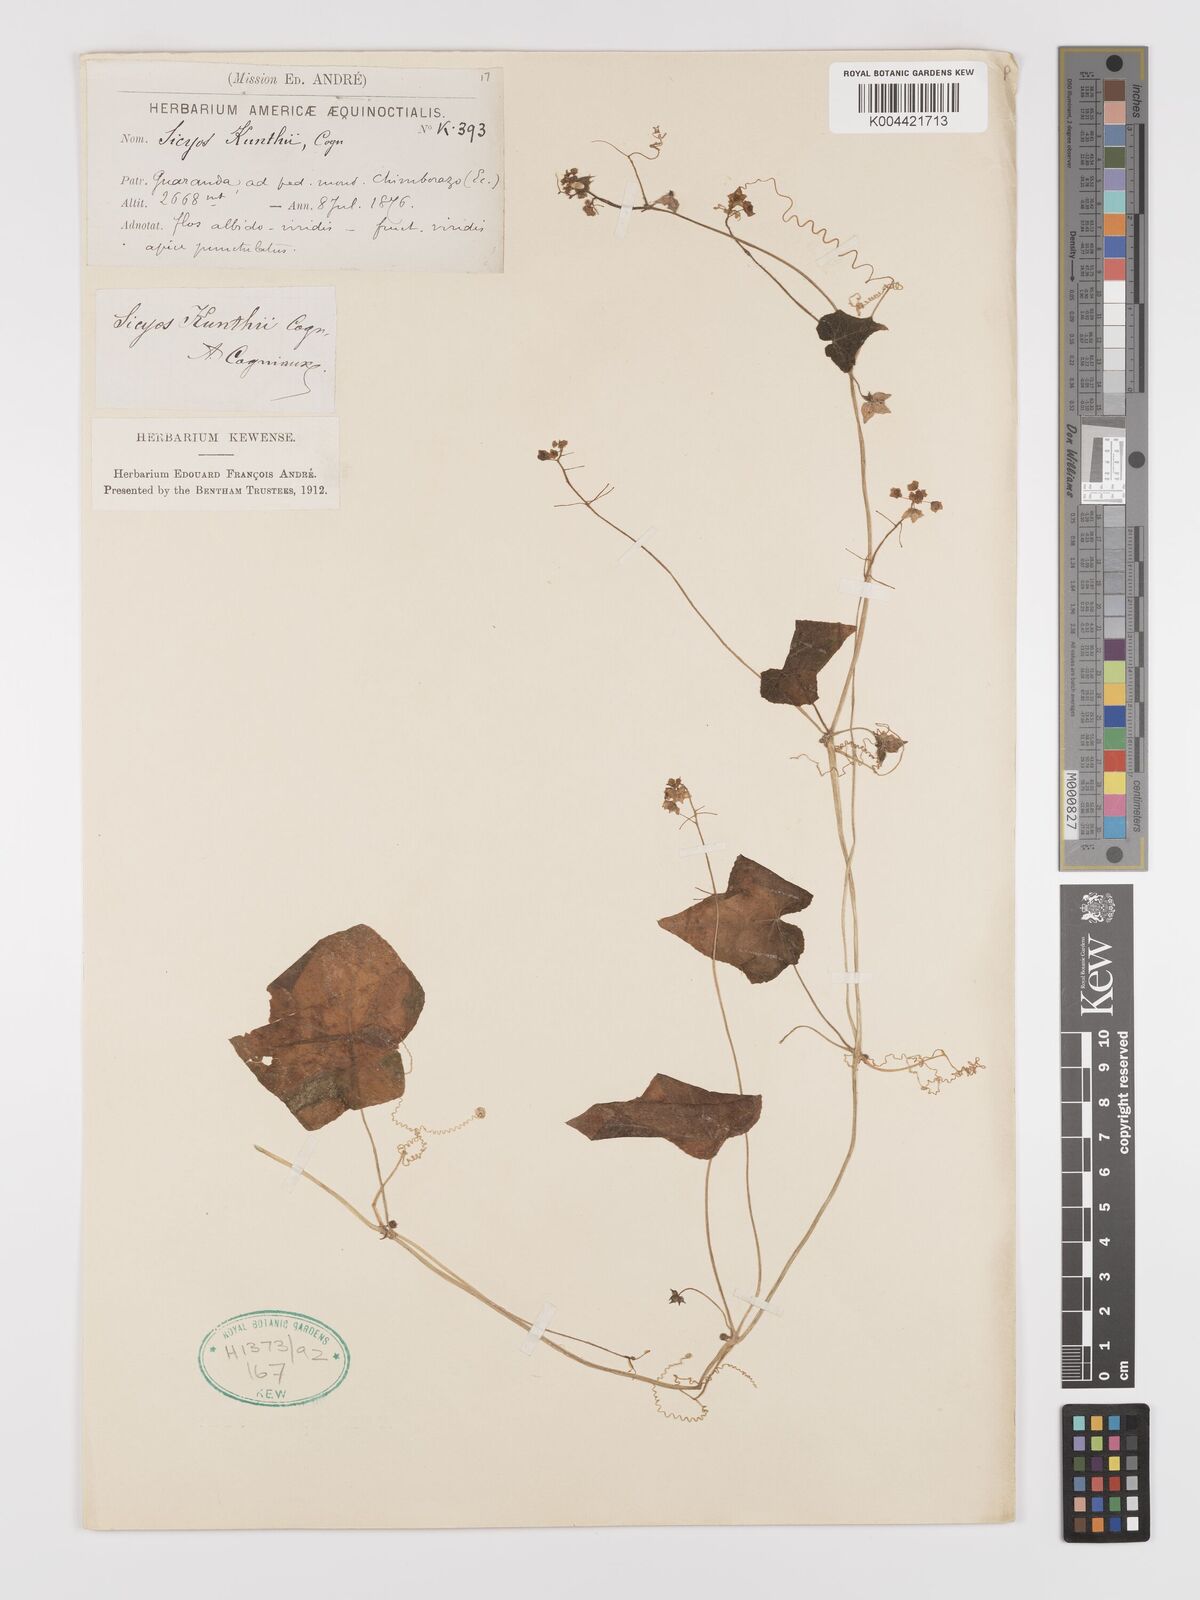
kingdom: Plantae
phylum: Tracheophyta
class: Magnoliopsida
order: Cucurbitales
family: Cucurbitaceae
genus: Sicyos
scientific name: Sicyos kunthii
